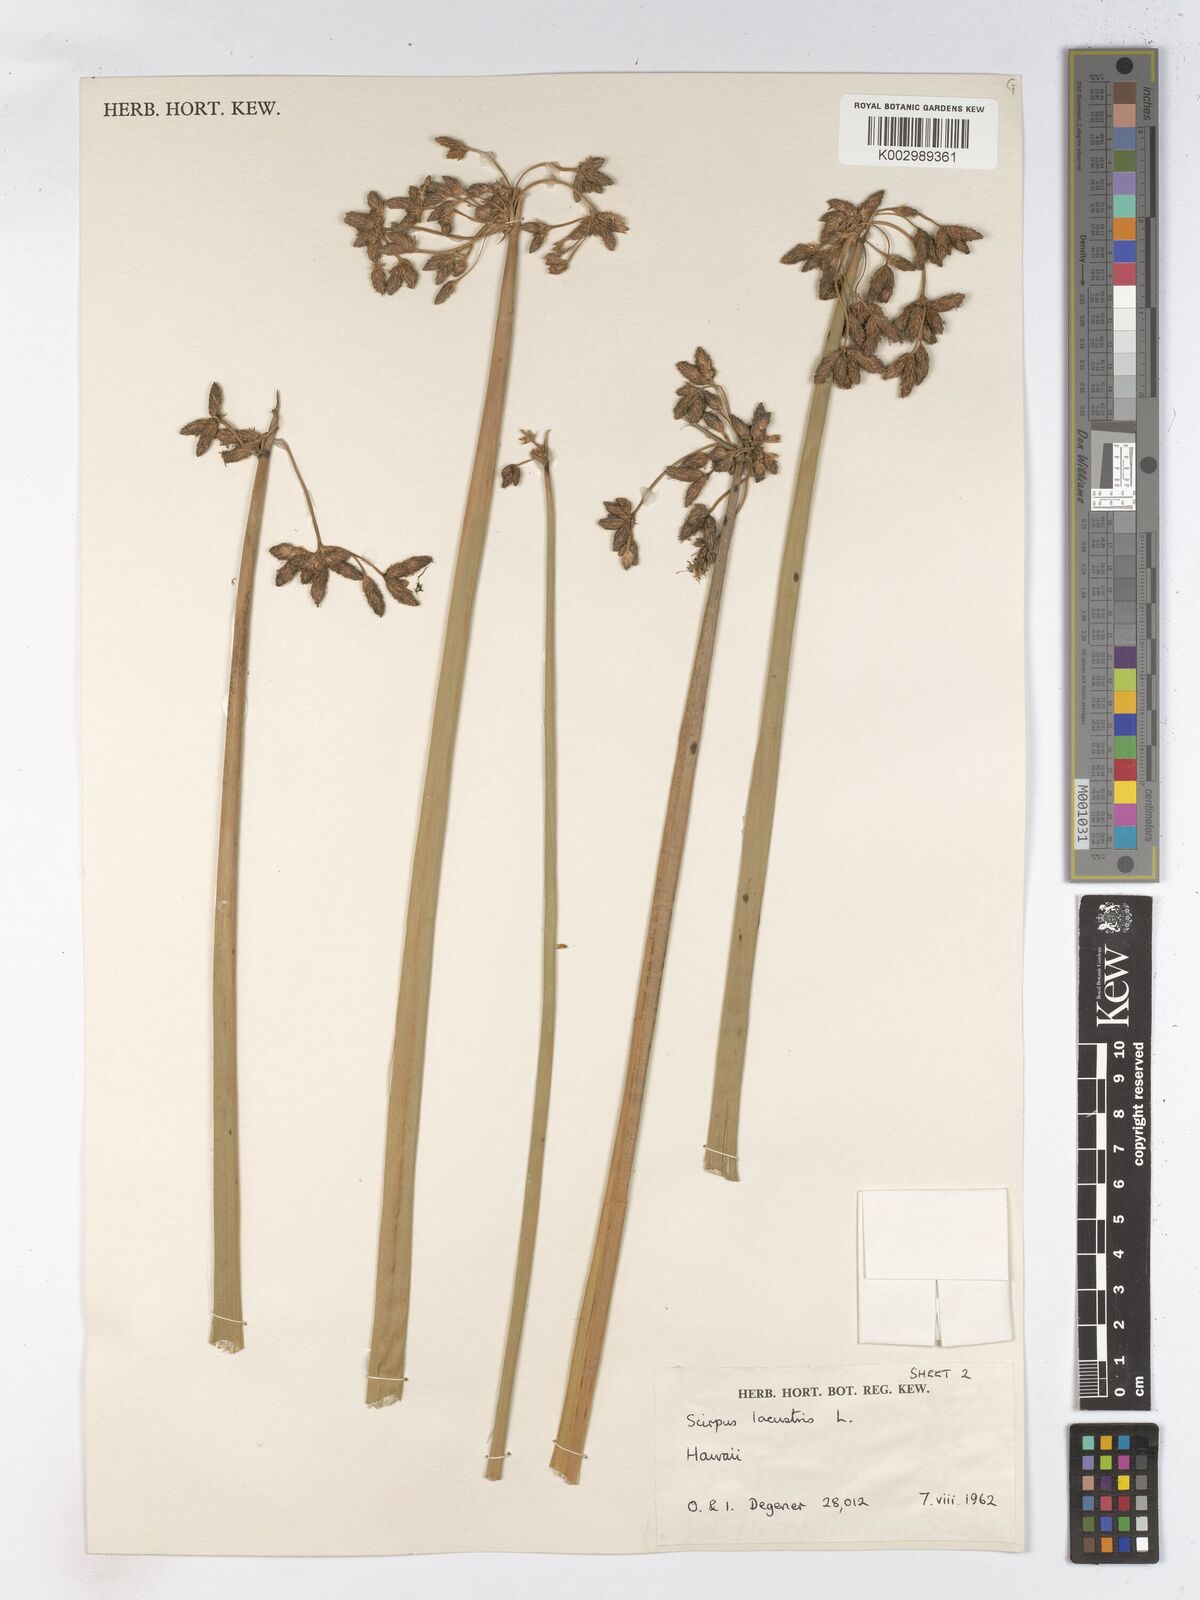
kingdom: Plantae
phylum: Tracheophyta
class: Liliopsida
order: Poales
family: Cyperaceae
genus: Schoenoplectus
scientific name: Schoenoplectus lacustris
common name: Common club-rush
